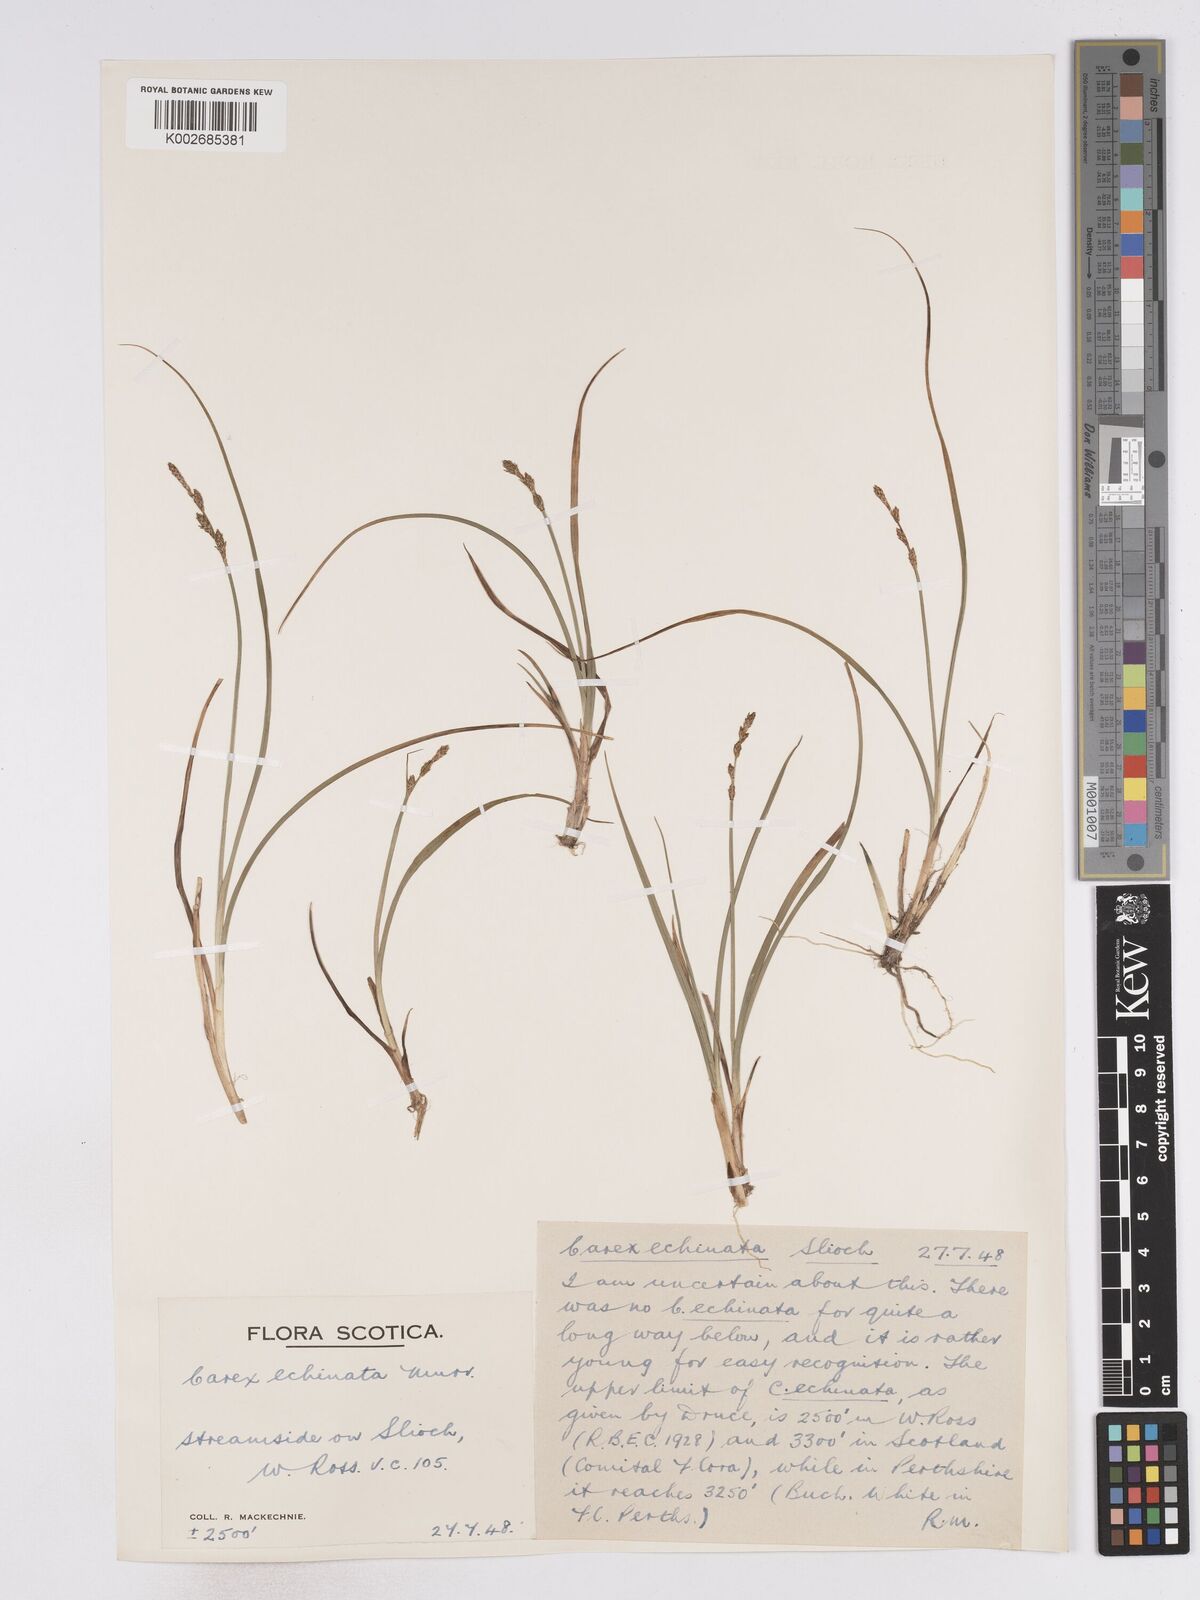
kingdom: Plantae
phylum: Tracheophyta
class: Liliopsida
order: Poales
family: Cyperaceae
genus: Carex
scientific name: Carex echinata
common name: Star sedge
